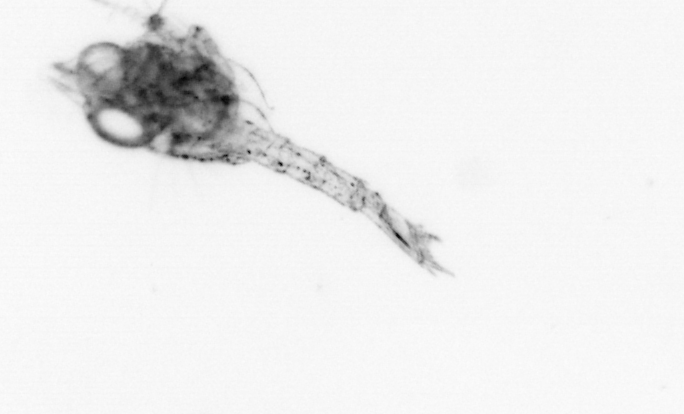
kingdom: Animalia
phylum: Arthropoda
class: Malacostraca
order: Decapoda
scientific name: Decapoda
